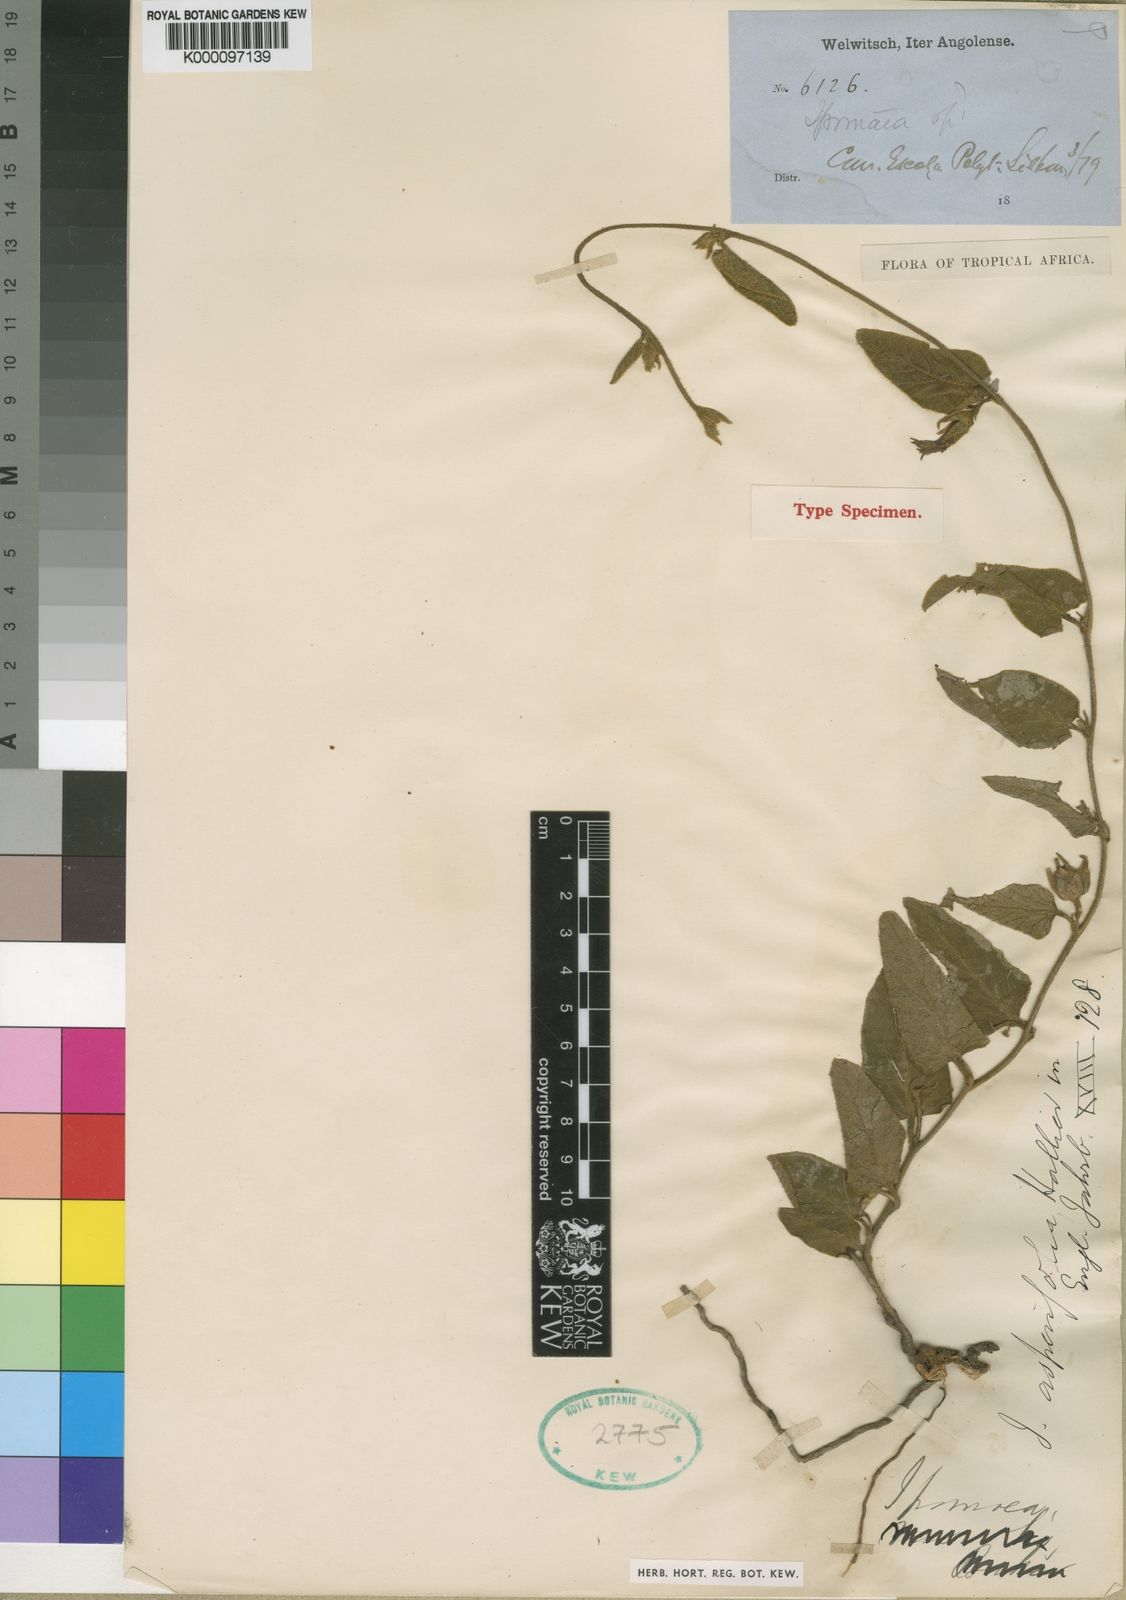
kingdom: Plantae
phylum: Tracheophyta
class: Magnoliopsida
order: Solanales
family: Convolvulaceae
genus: Ipomoea
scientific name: Ipomoea fulvicaulis
